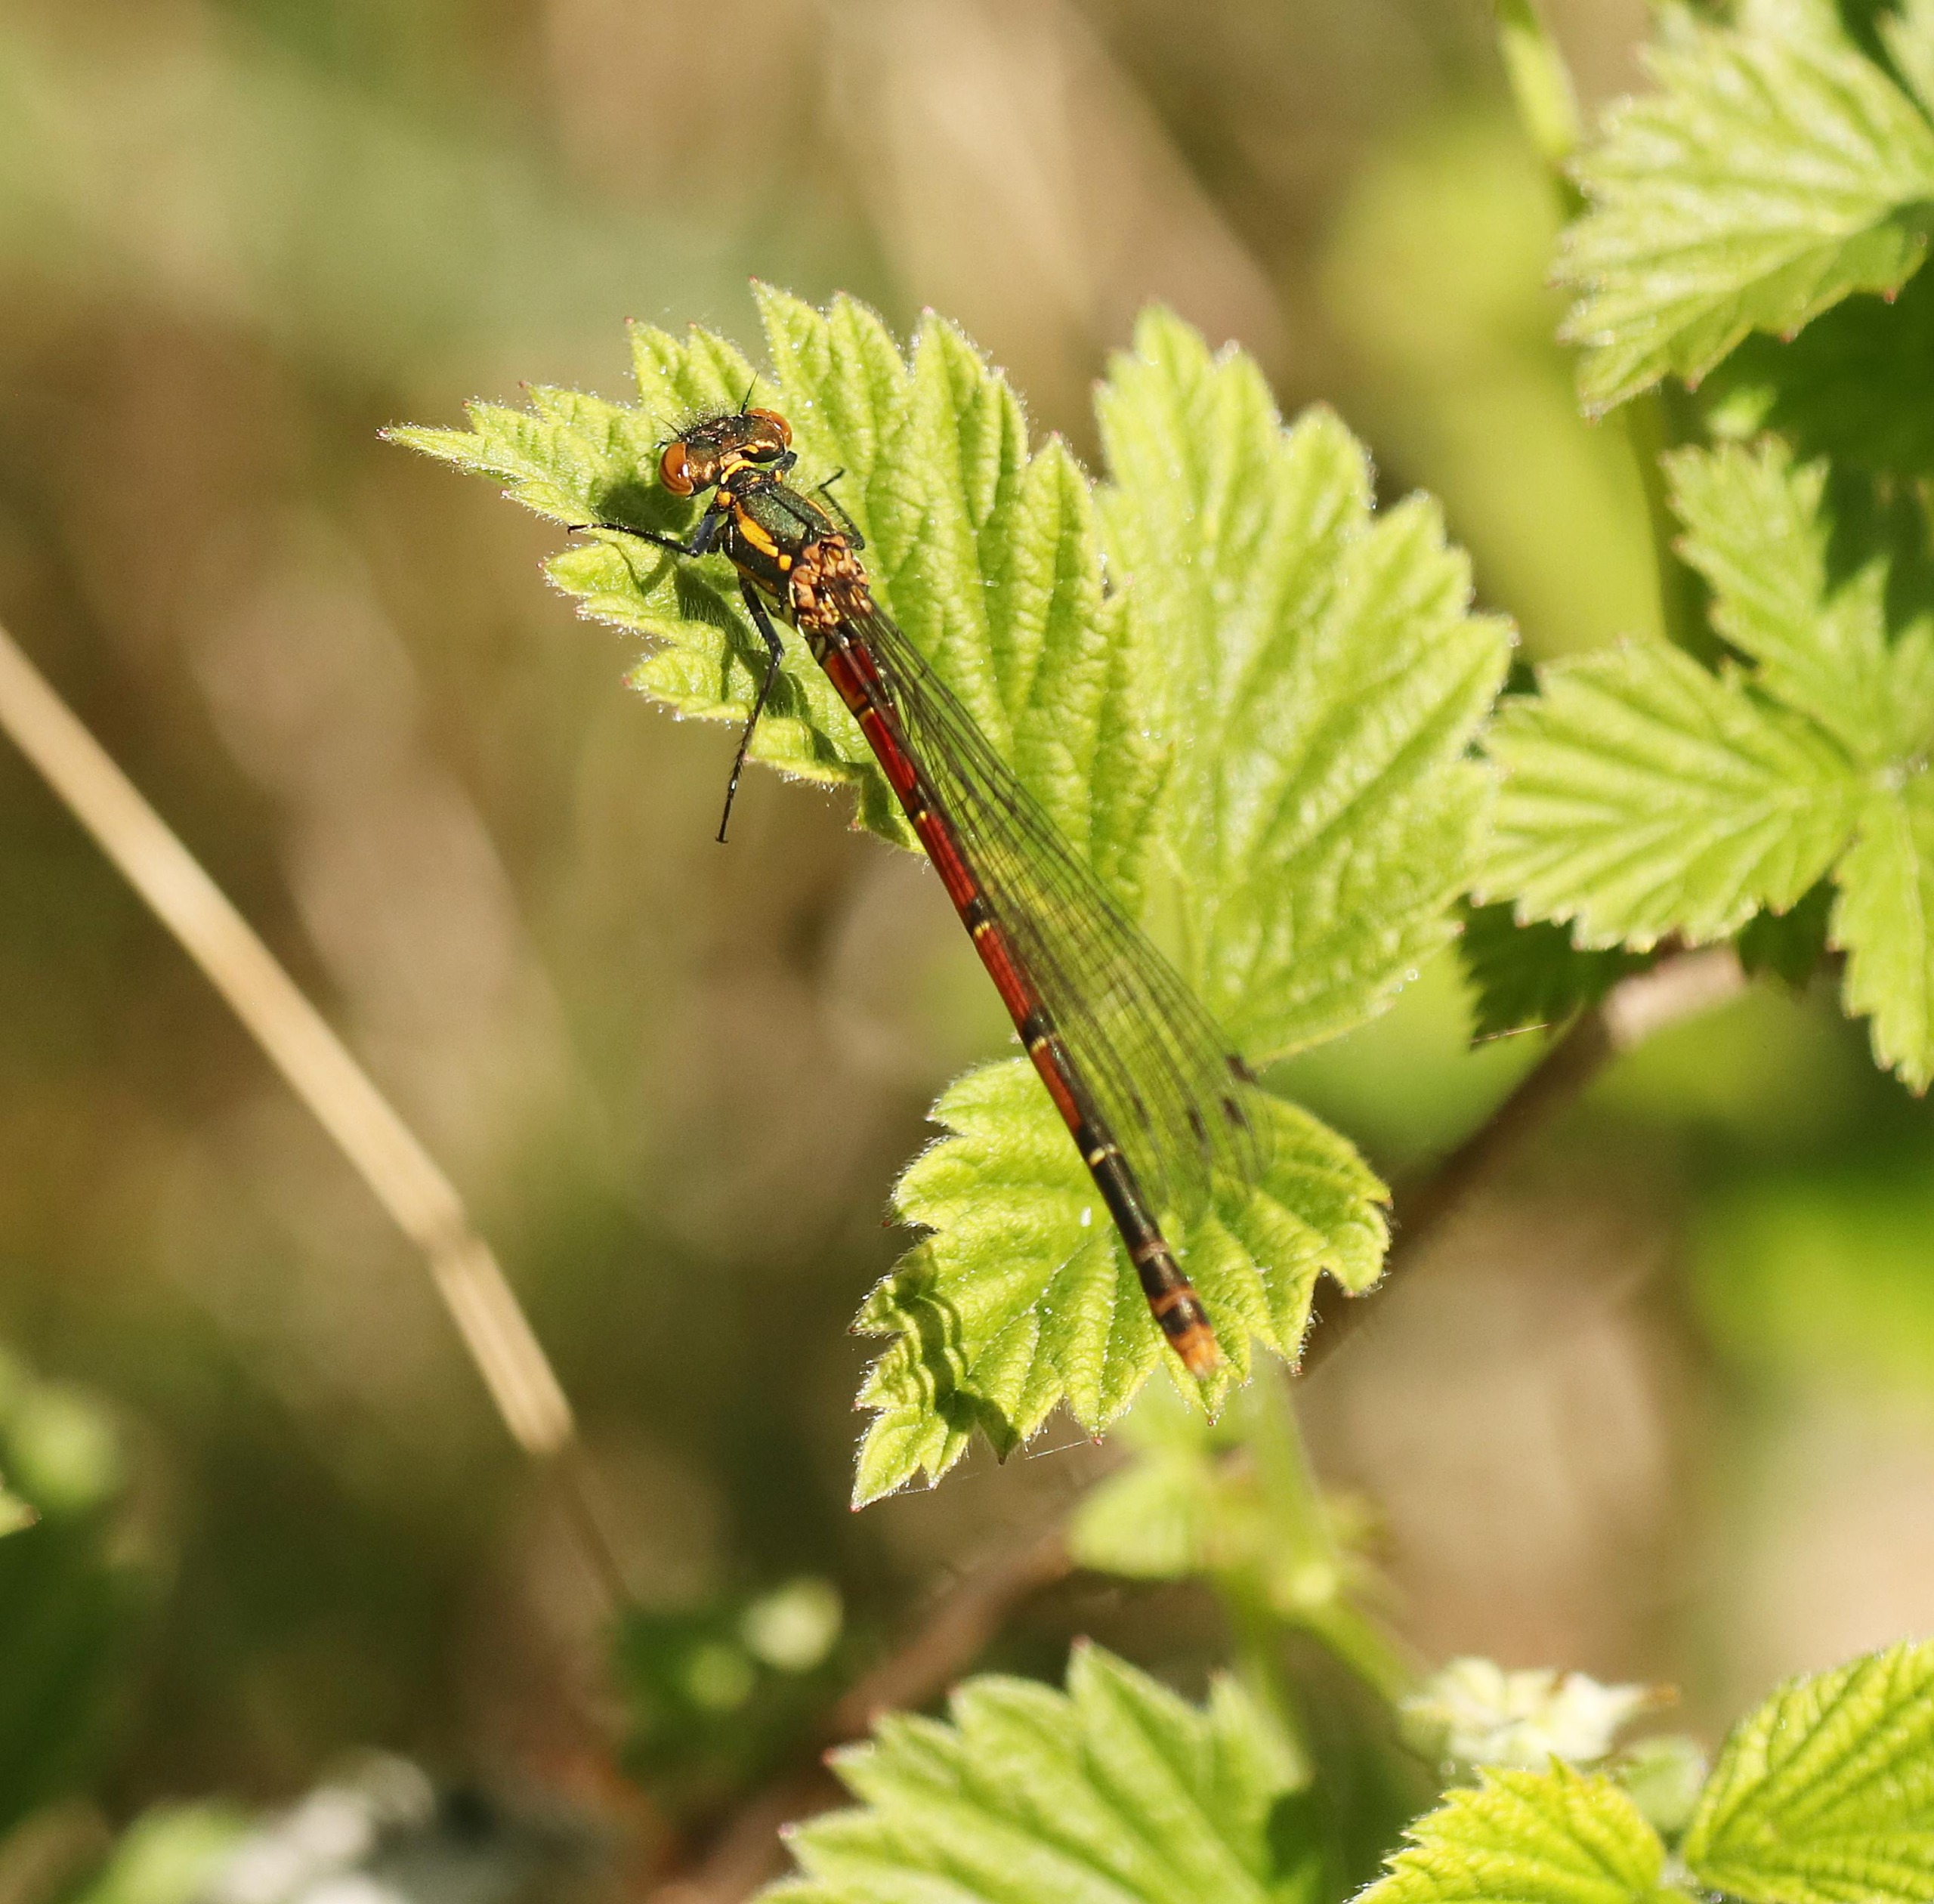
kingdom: Animalia
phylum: Arthropoda
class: Insecta
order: Odonata
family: Coenagrionidae
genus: Pyrrhosoma
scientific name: Pyrrhosoma nymphula
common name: Rød vandnymfe
